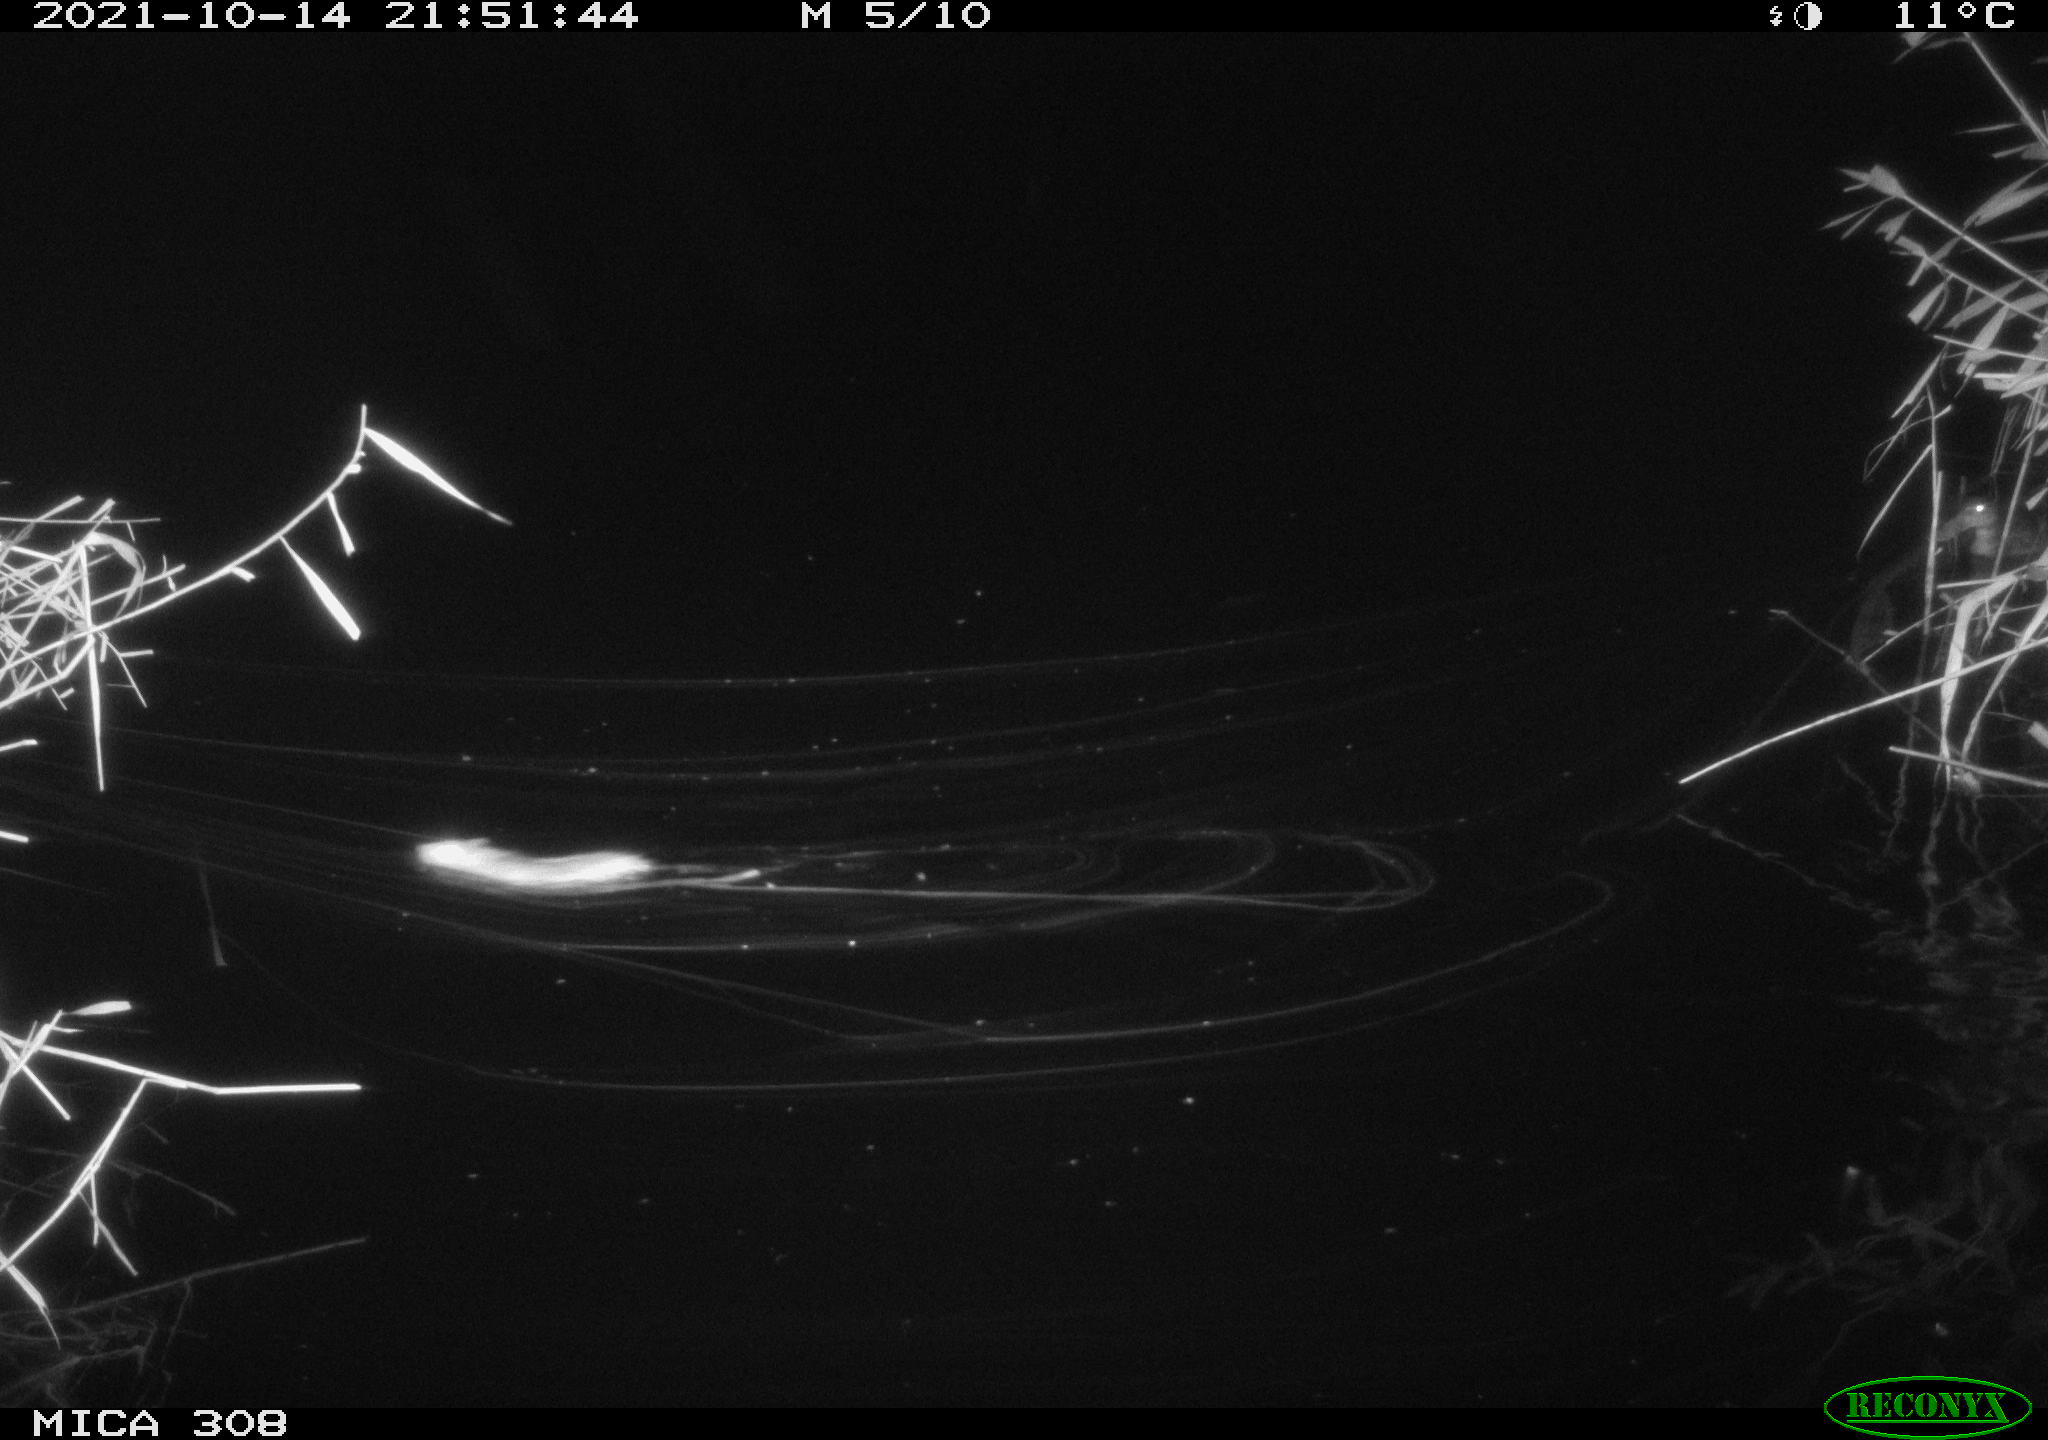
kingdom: Animalia
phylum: Chordata
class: Mammalia
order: Rodentia
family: Muridae
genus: Rattus
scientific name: Rattus norvegicus
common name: Brown rat
